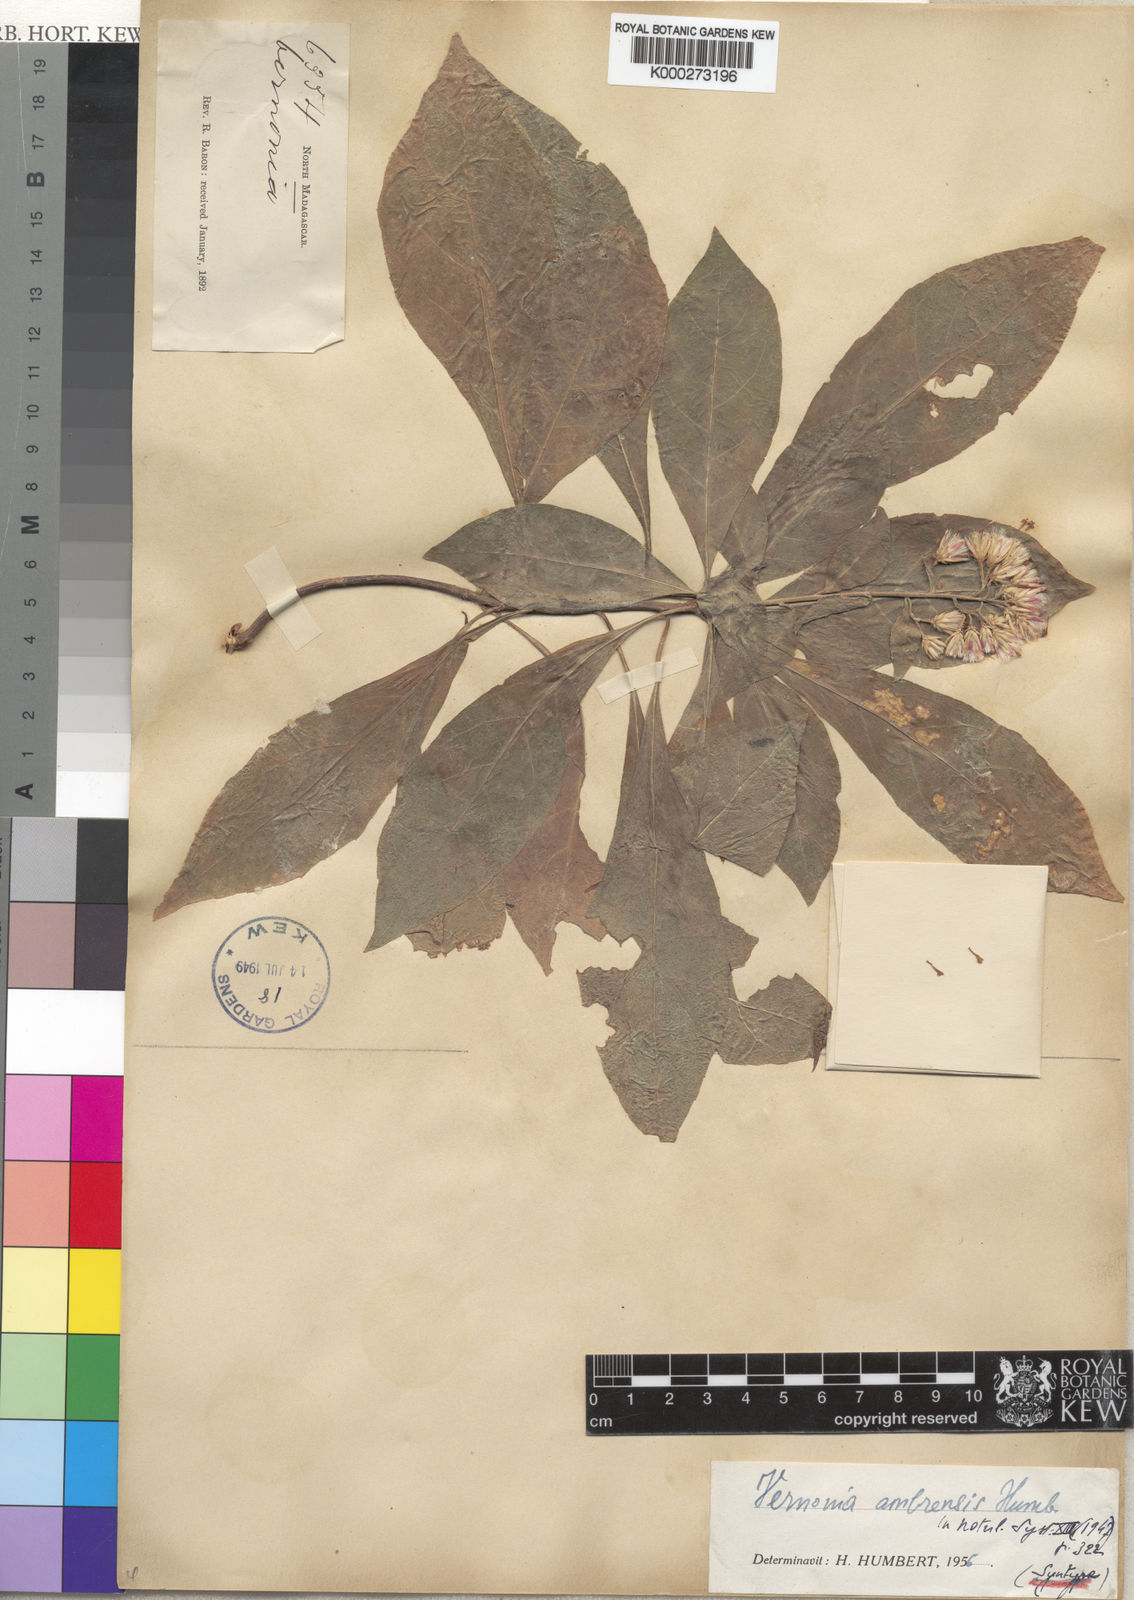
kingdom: Plantae
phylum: Tracheophyta
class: Magnoliopsida
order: Asterales
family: Asteraceae
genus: Vernonia
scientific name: Vernonia ambrensis
